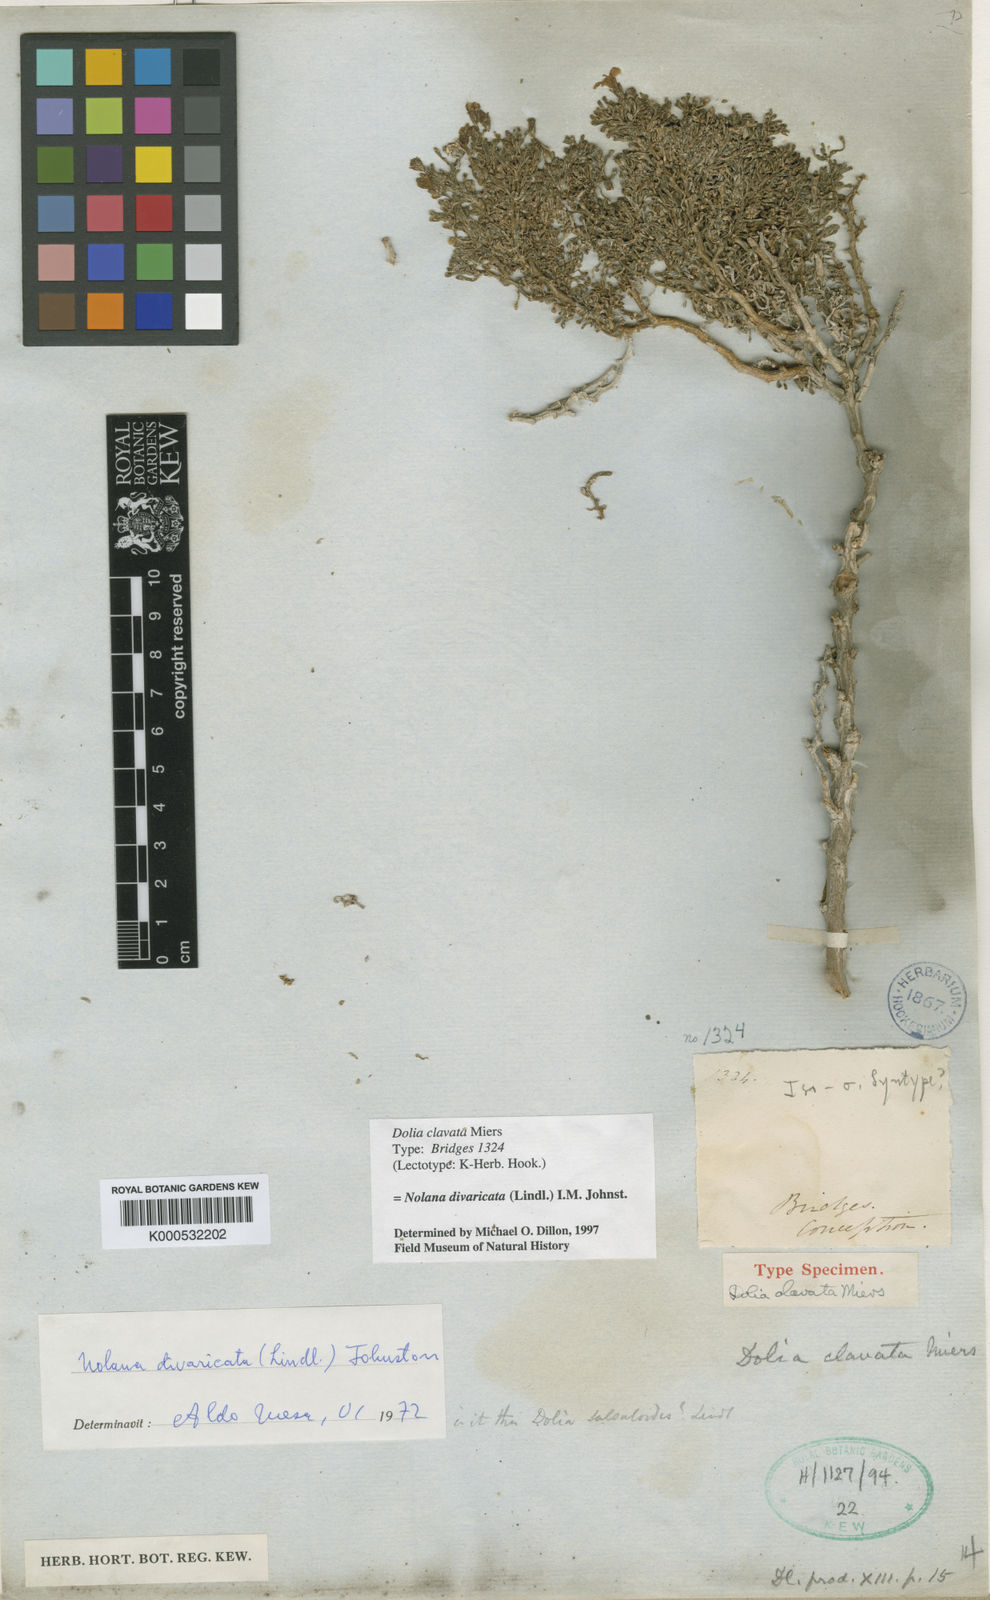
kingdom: Plantae
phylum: Tracheophyta
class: Magnoliopsida
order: Solanales
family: Solanaceae
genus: Nolana
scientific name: Nolana divaricata
